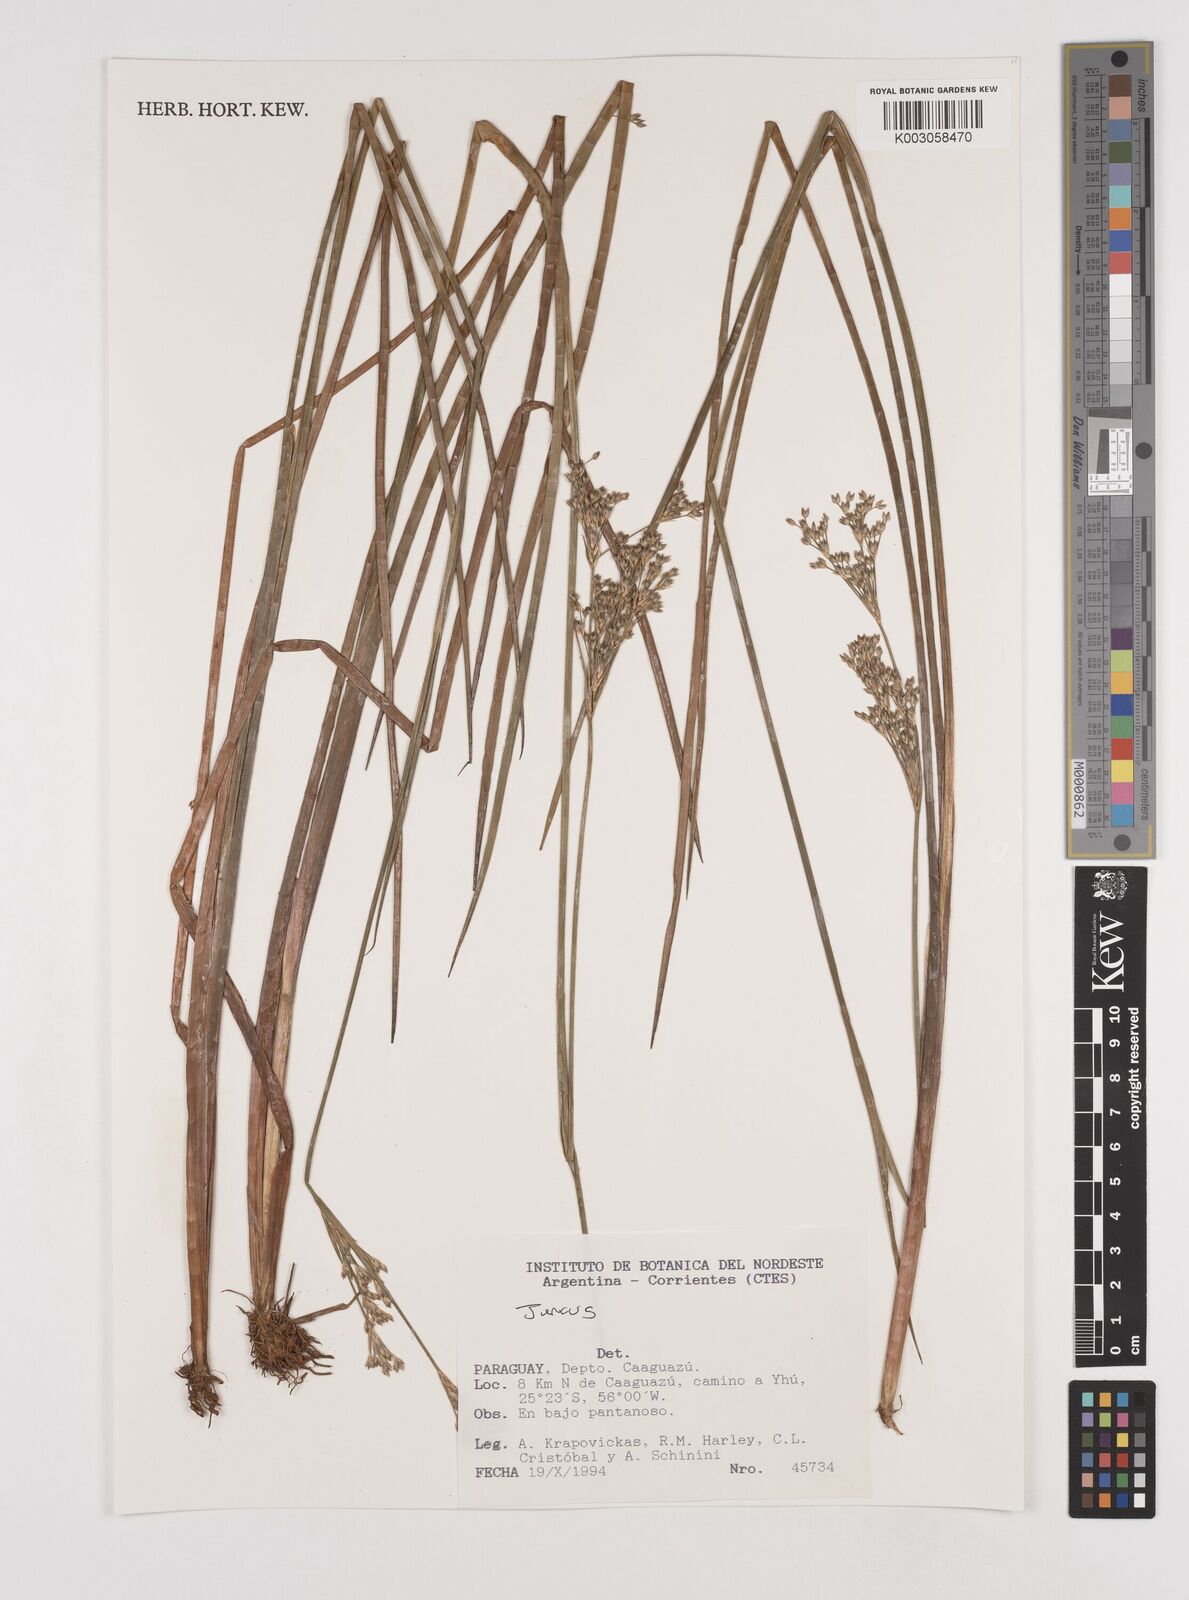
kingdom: Plantae
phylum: Tracheophyta
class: Liliopsida
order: Poales
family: Juncaceae
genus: Juncus
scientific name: Juncus
